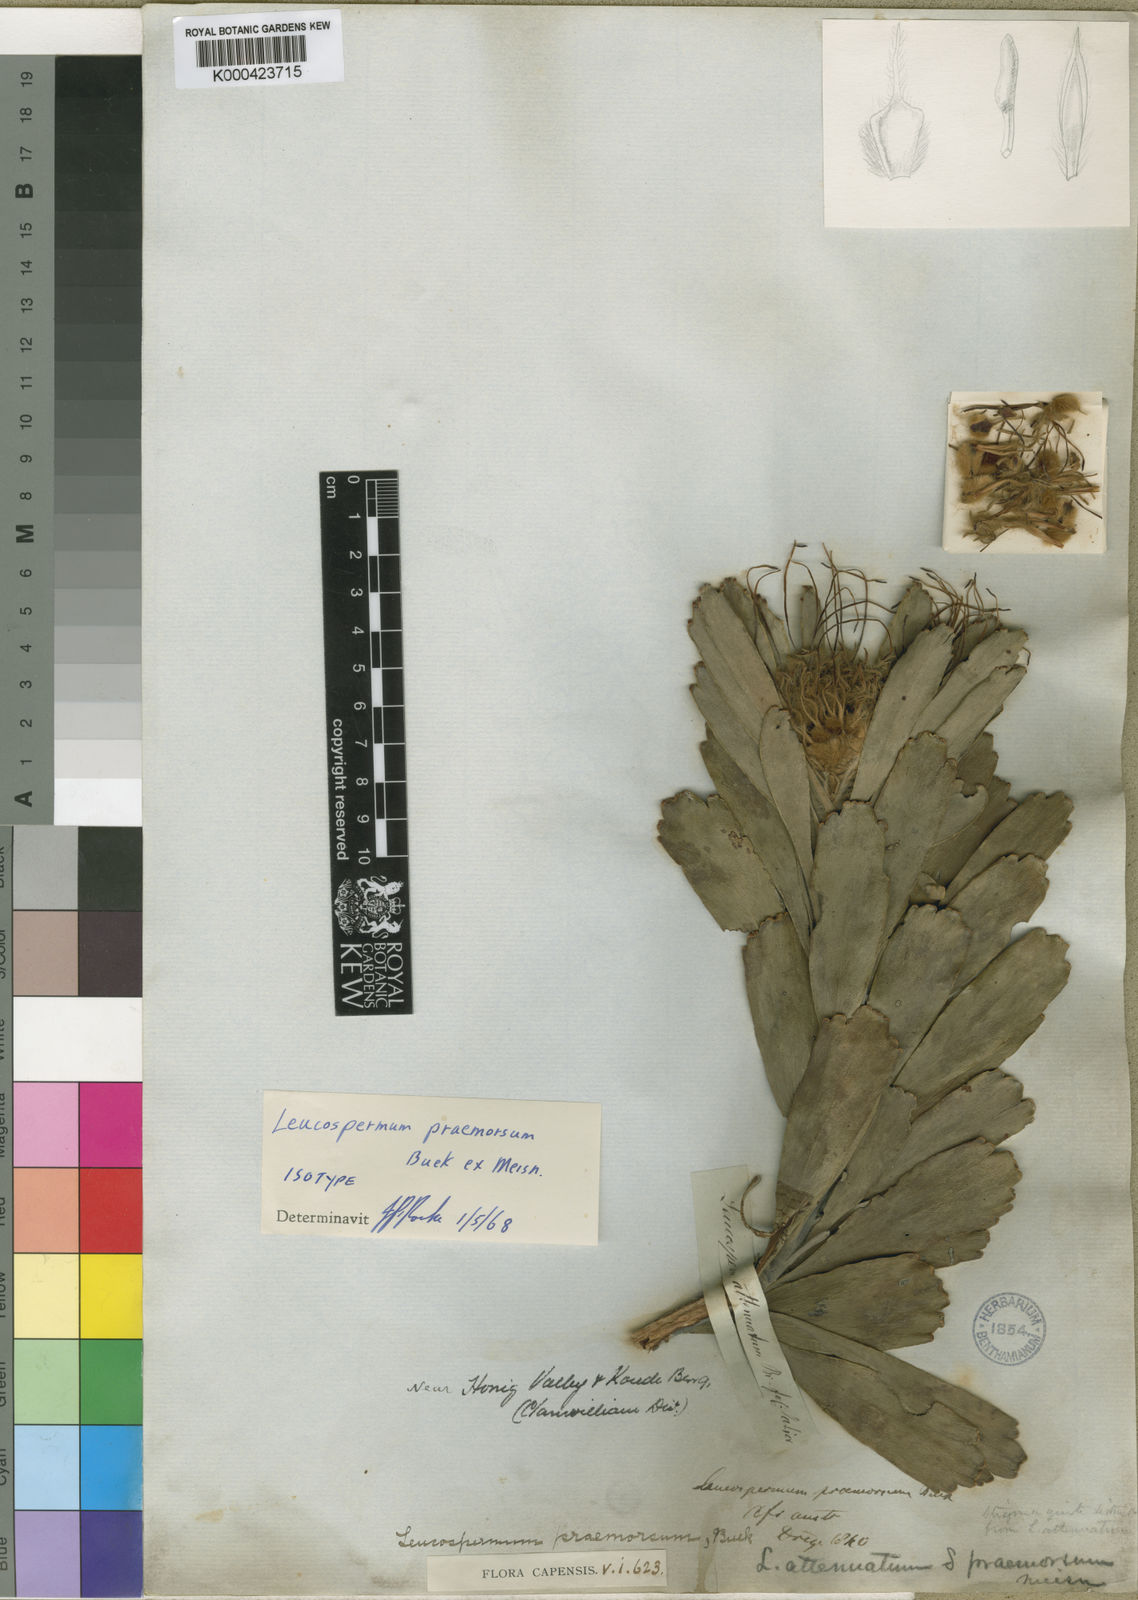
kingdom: Plantae
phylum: Tracheophyta
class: Magnoliopsida
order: Proteales
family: Proteaceae
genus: Leucospermum
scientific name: Leucospermum praemorsum
